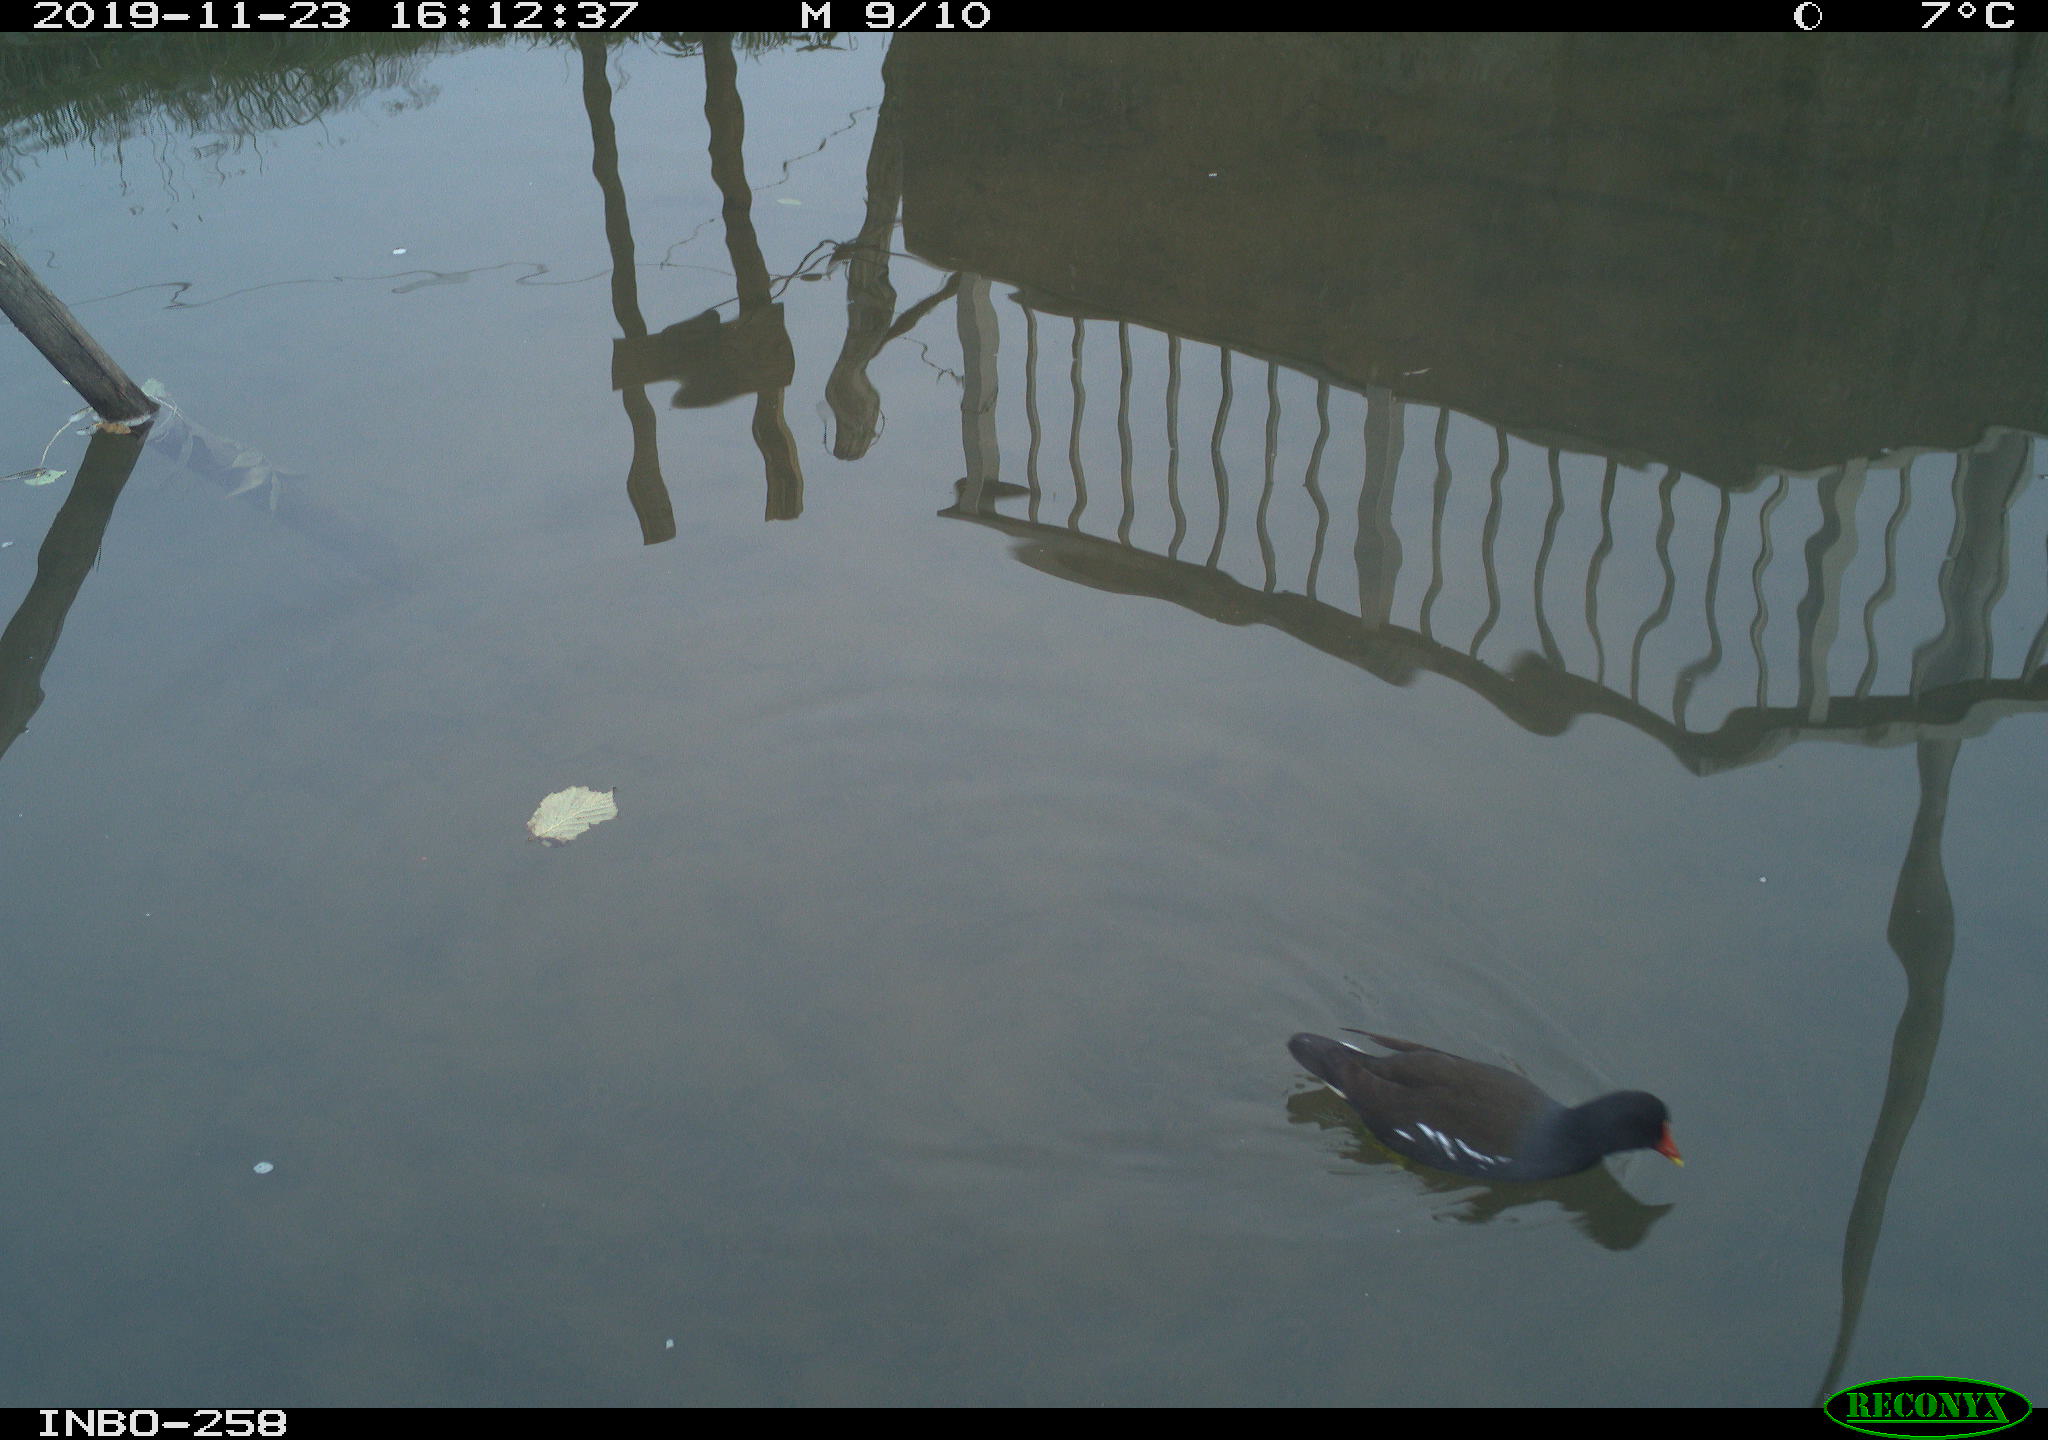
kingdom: Animalia
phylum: Chordata
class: Aves
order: Gruiformes
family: Rallidae
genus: Gallinula
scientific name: Gallinula chloropus
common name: Common moorhen
